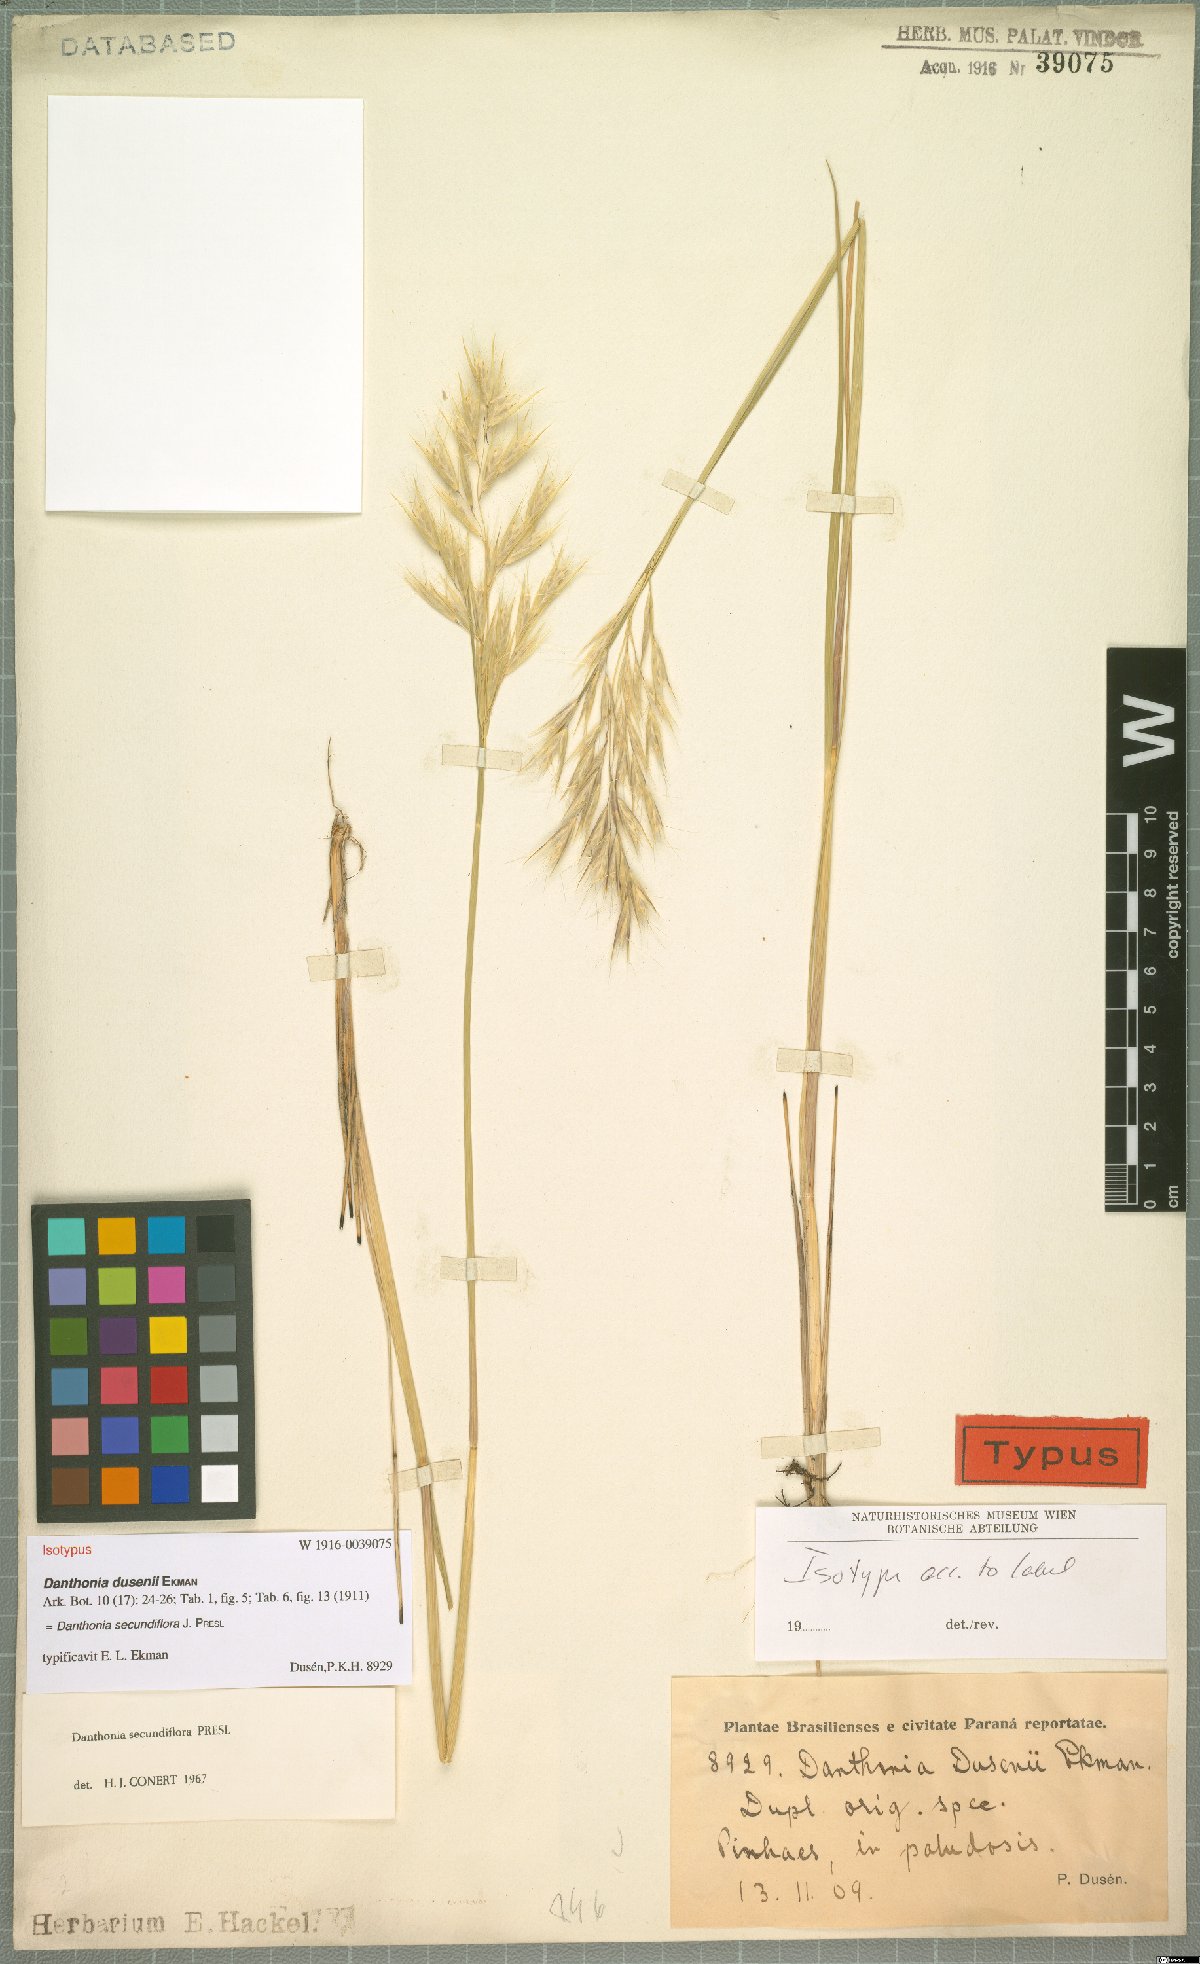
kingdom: Plantae
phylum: Tracheophyta
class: Liliopsida
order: Poales
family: Poaceae
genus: Danthonia
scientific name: Danthonia secundiflora
